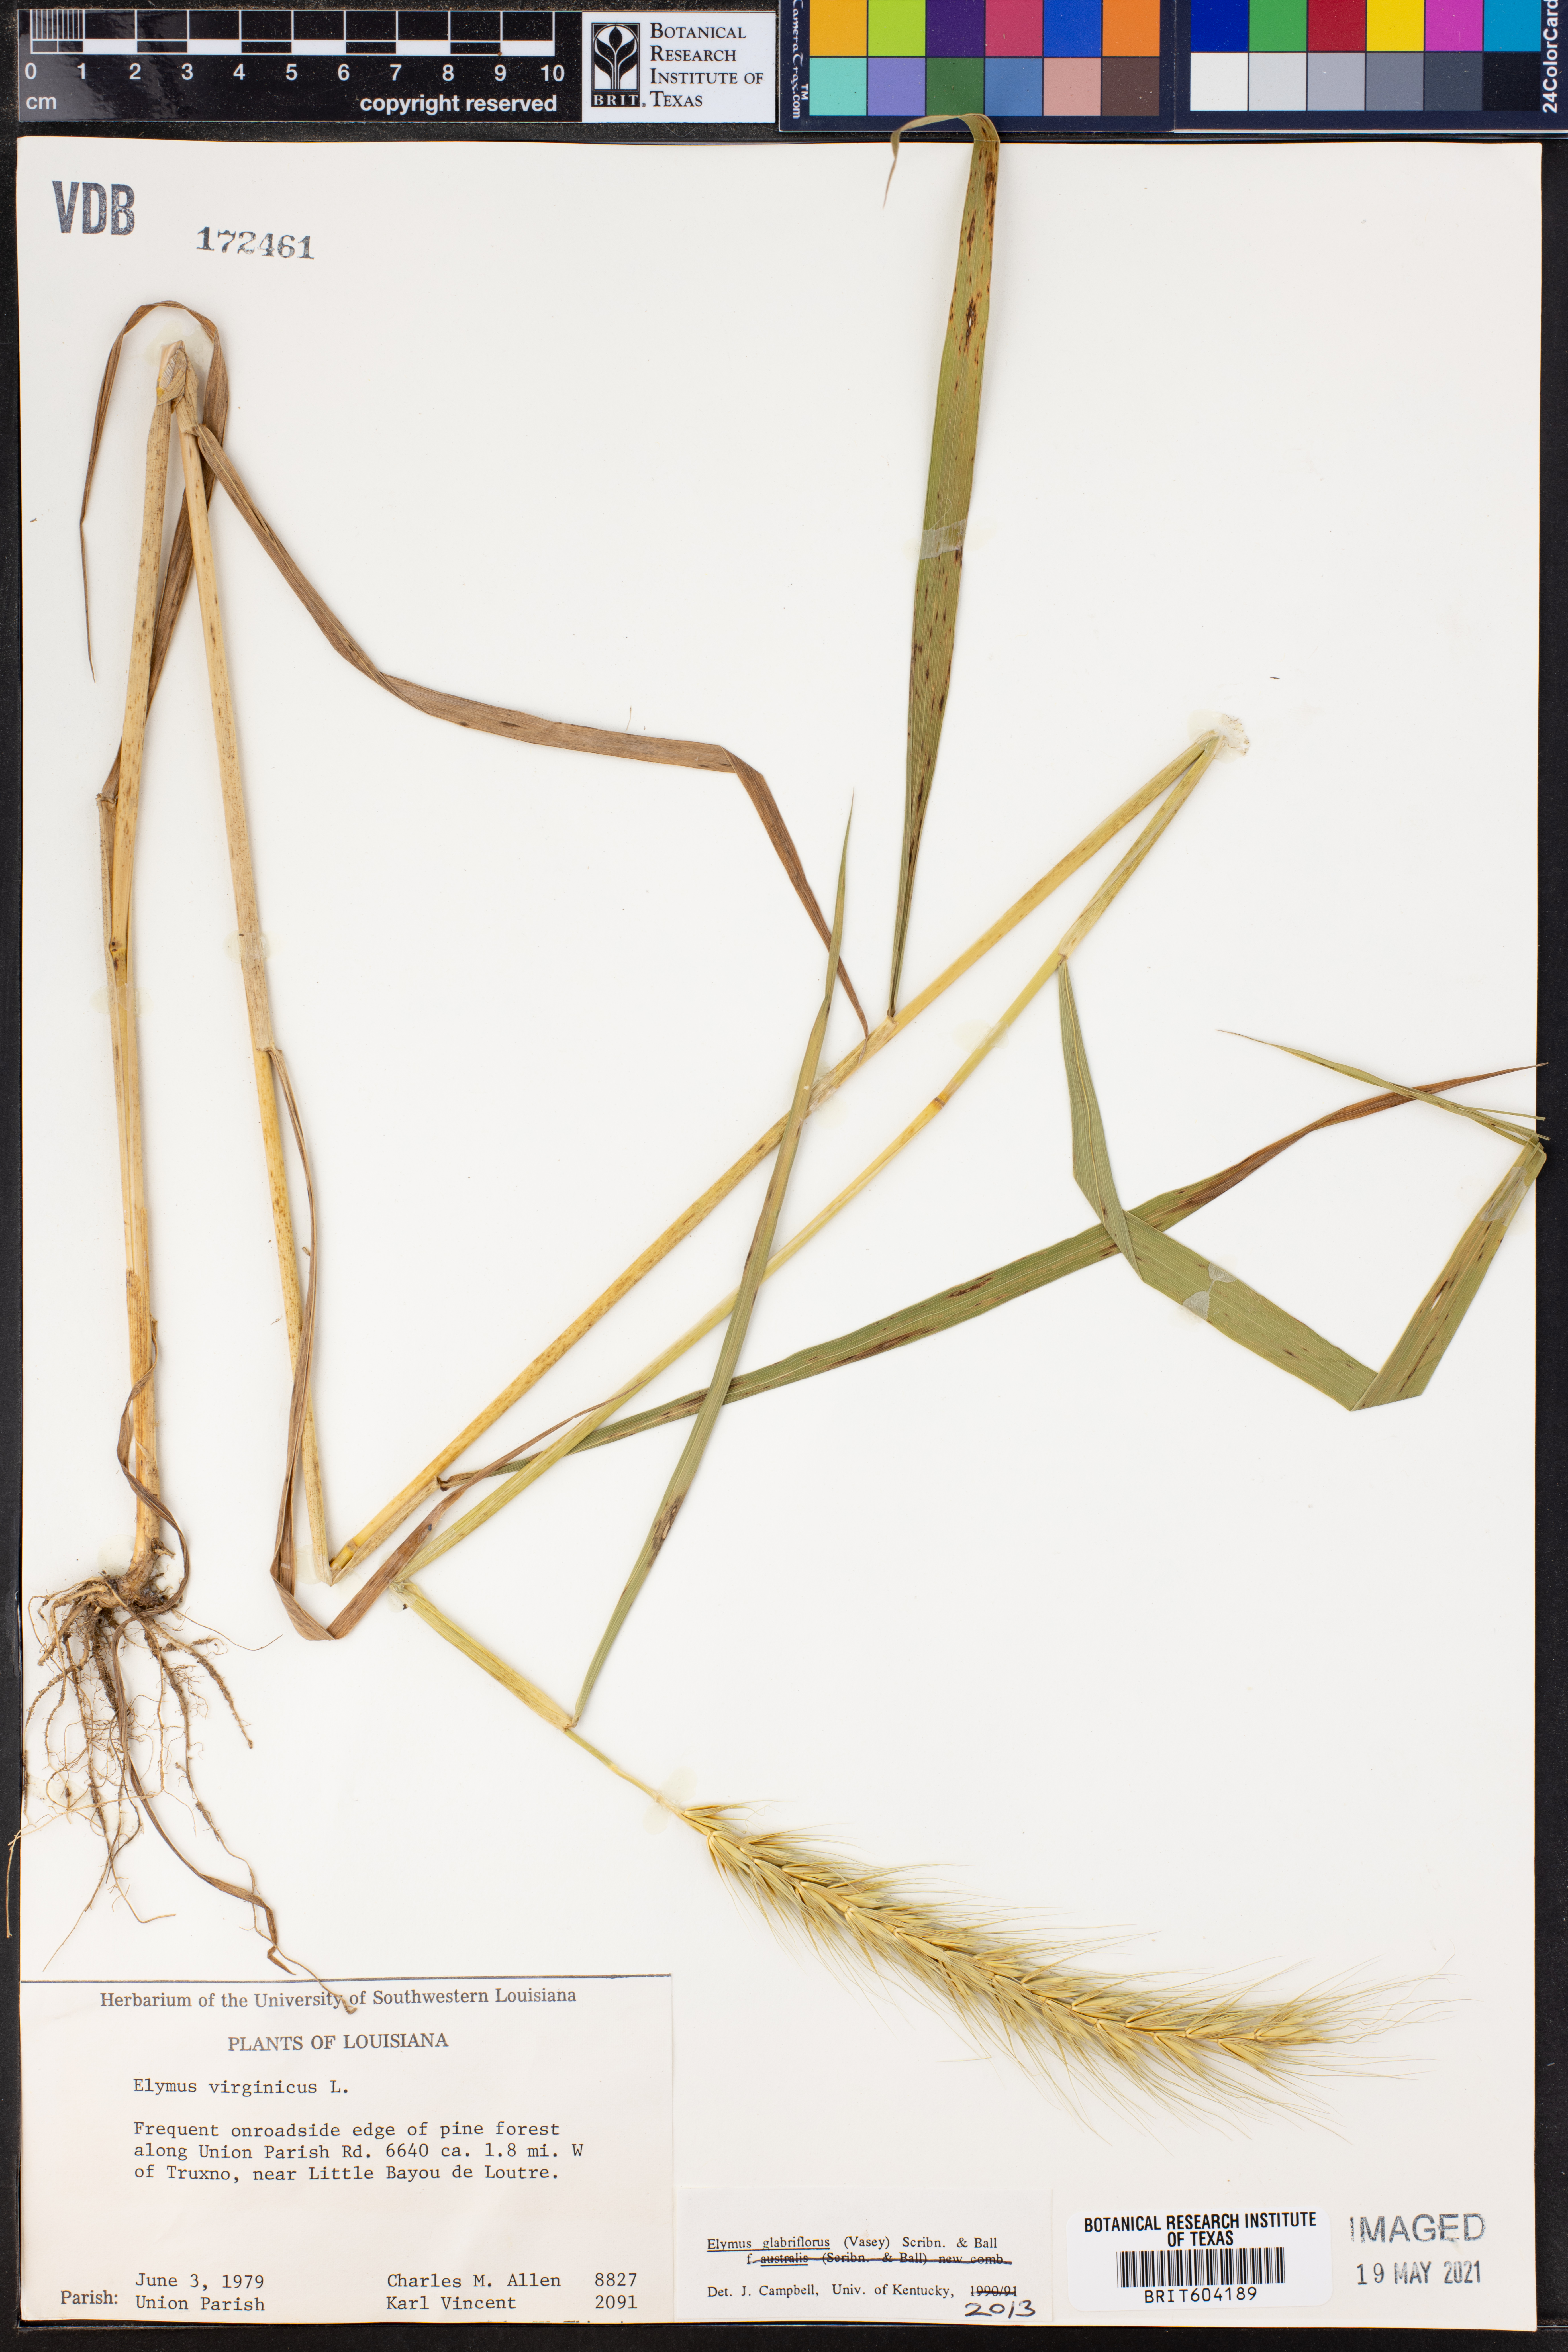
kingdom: Plantae
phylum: Tracheophyta
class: Liliopsida
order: Poales
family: Poaceae
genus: Elymus
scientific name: Elymus virginicus
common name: Common eastern wildrye
